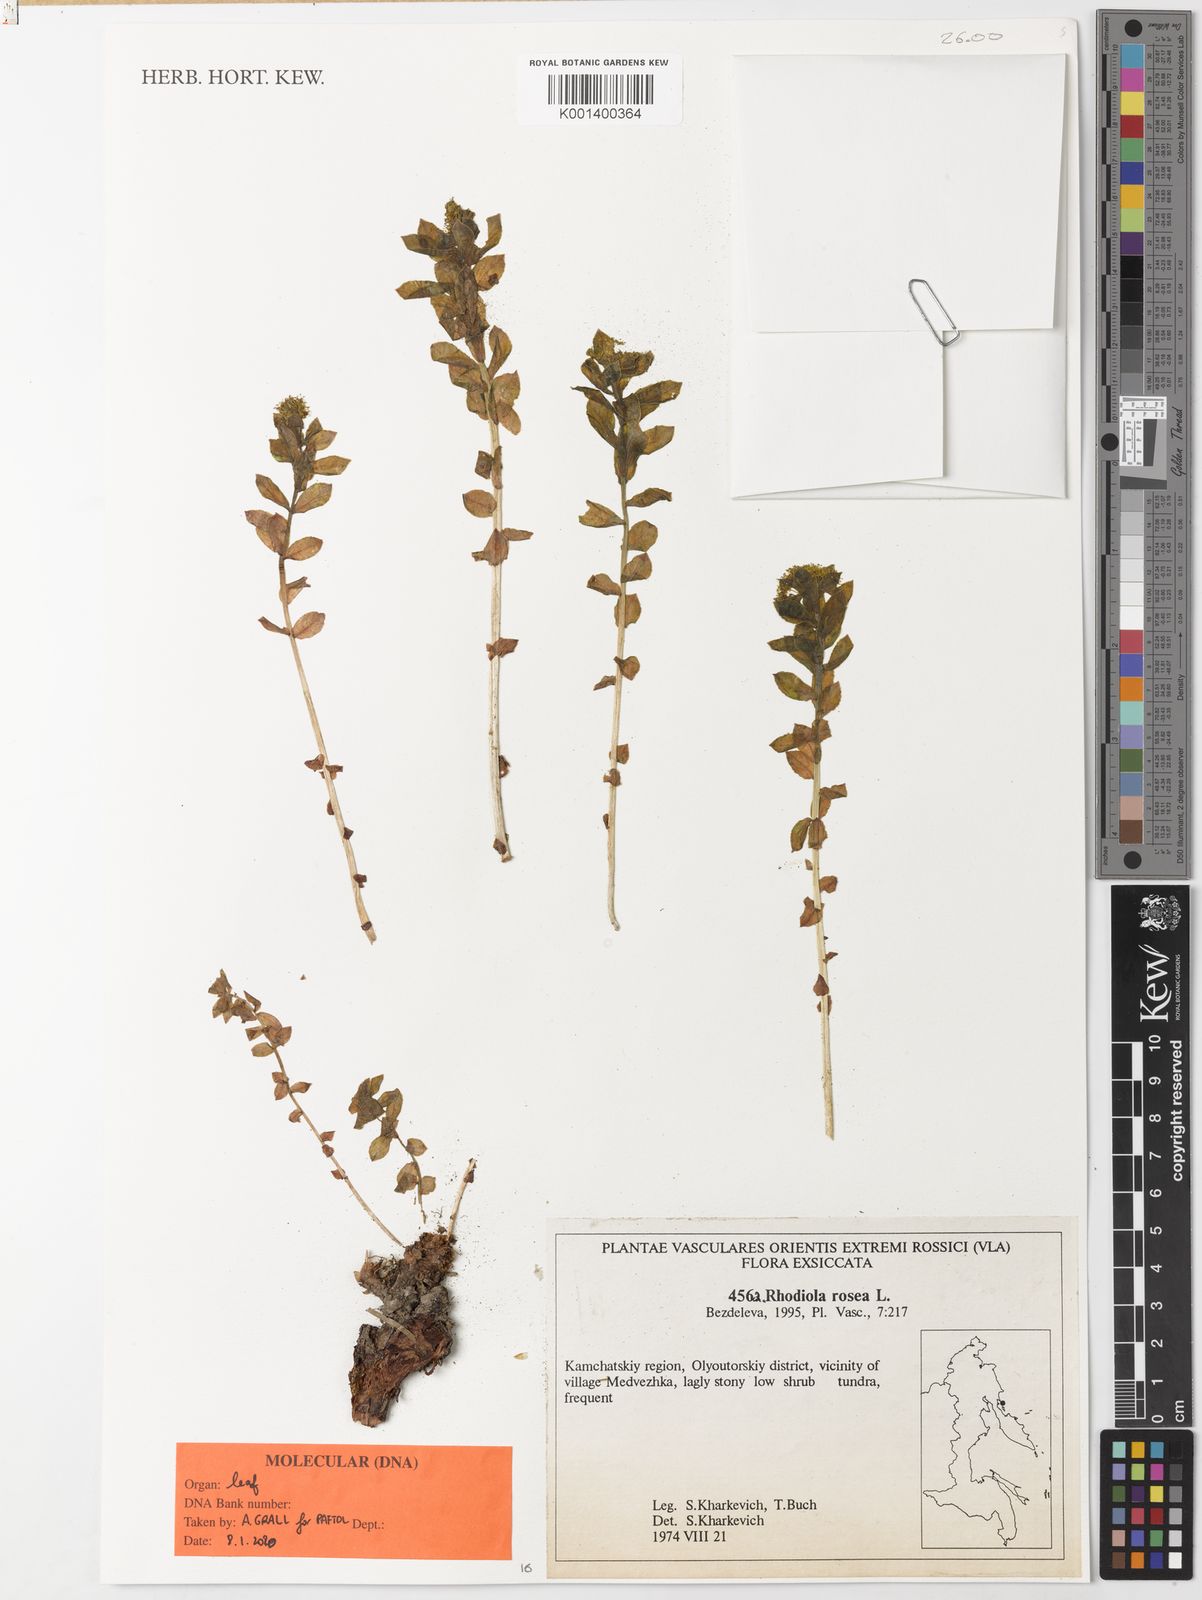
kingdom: Plantae
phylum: Tracheophyta
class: Magnoliopsida
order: Saxifragales
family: Crassulaceae
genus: Rhodiola
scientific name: Rhodiola rosea
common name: Roseroot
